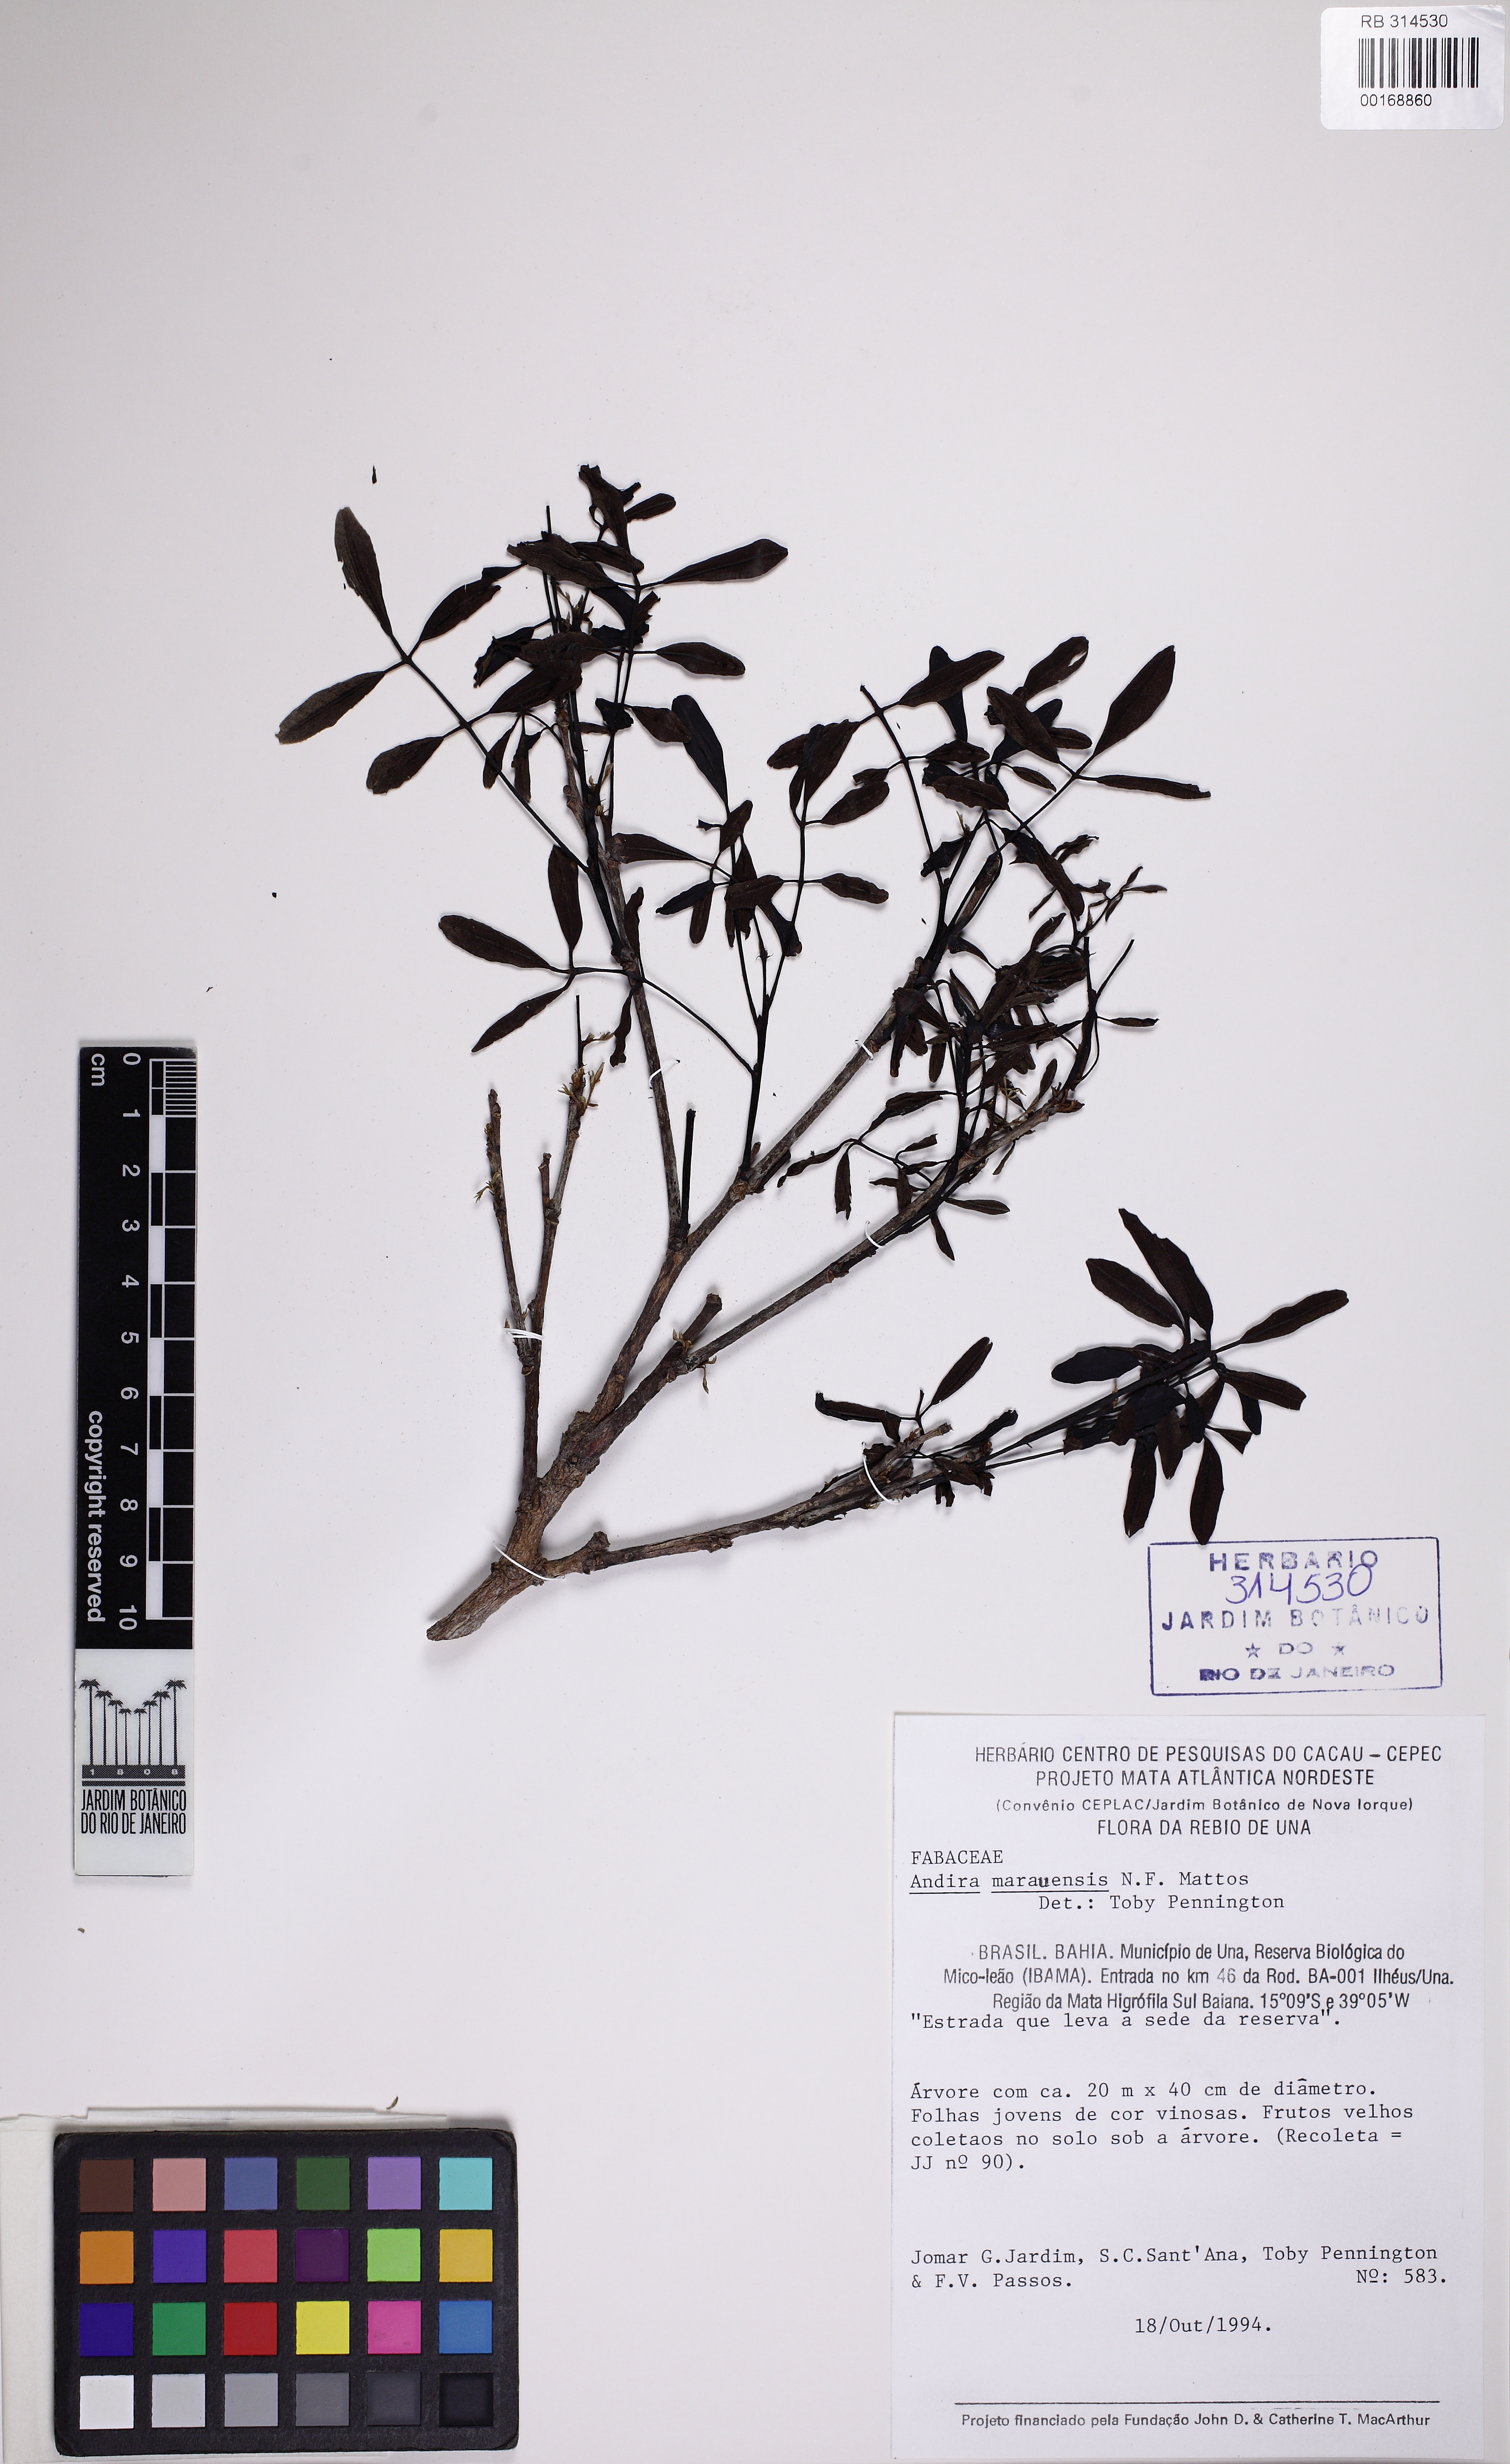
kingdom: Plantae
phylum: Tracheophyta
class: Magnoliopsida
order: Fabales
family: Fabaceae
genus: Andira
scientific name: Andira marauensis
